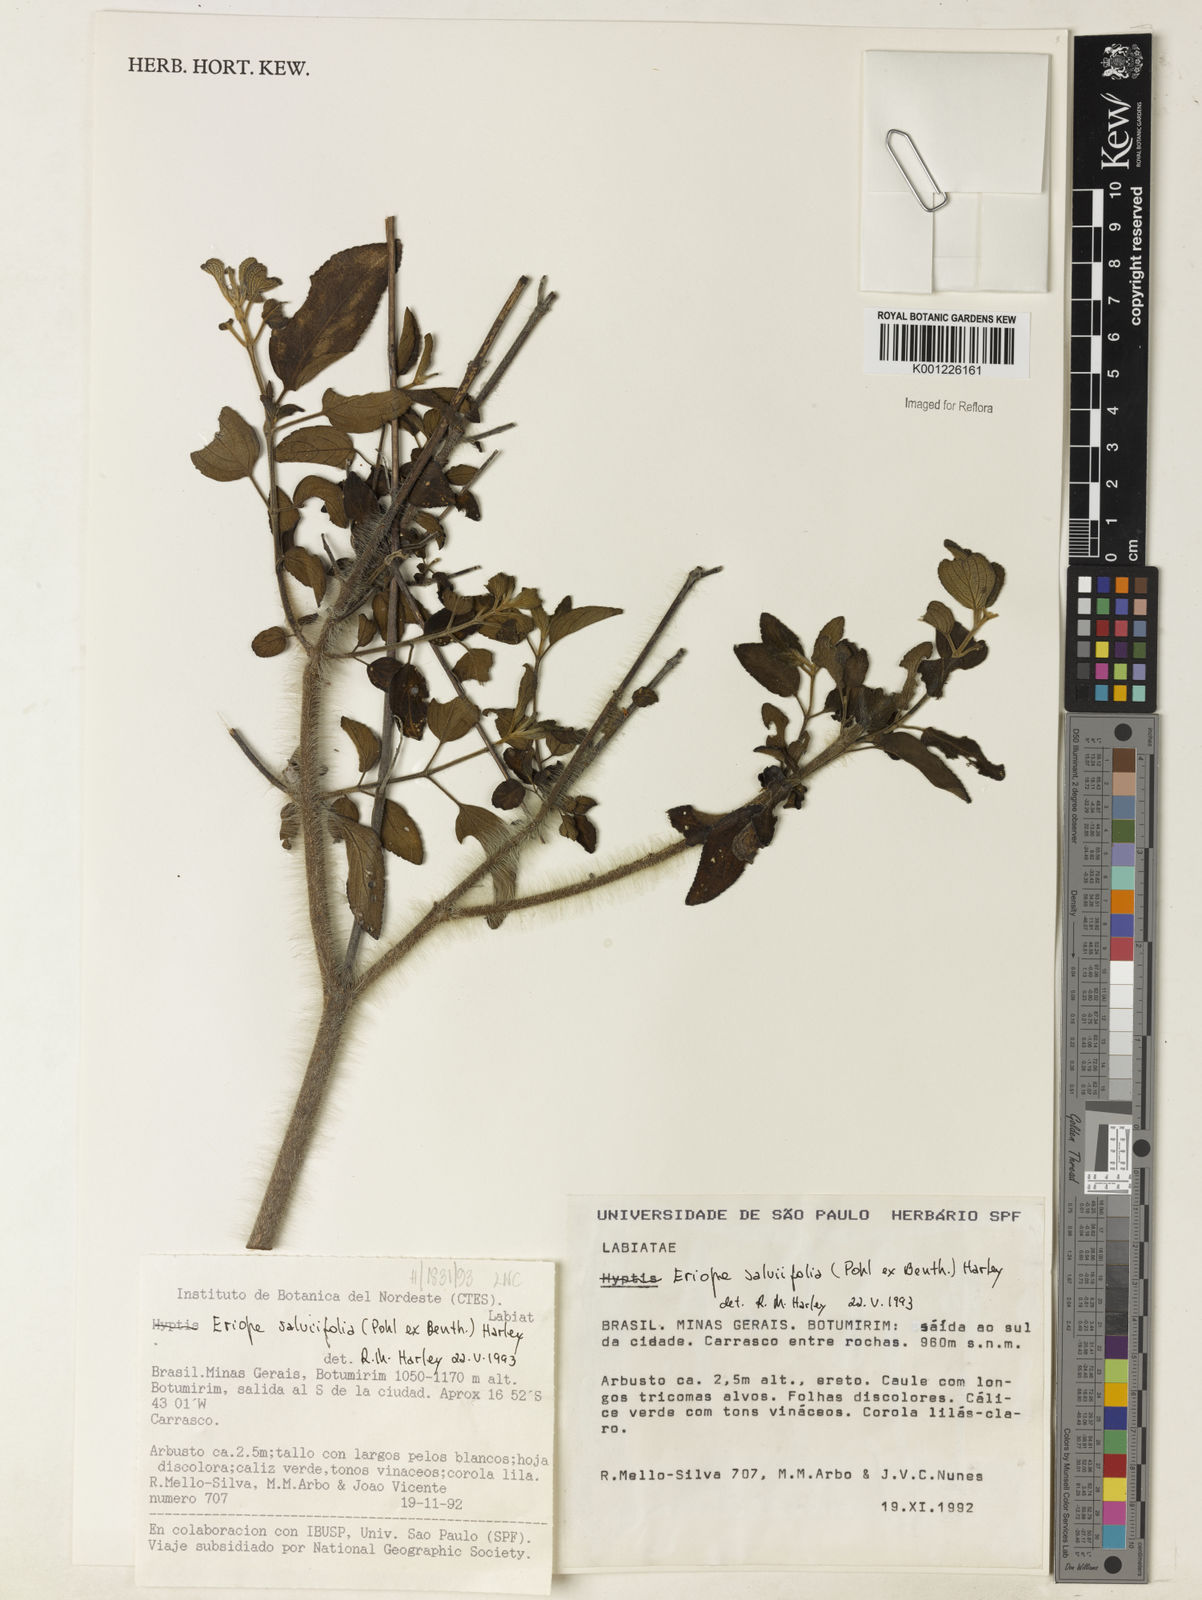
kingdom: Plantae
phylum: Tracheophyta
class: Magnoliopsida
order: Lamiales
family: Lamiaceae
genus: Eriope
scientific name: Eriope salviifolia
